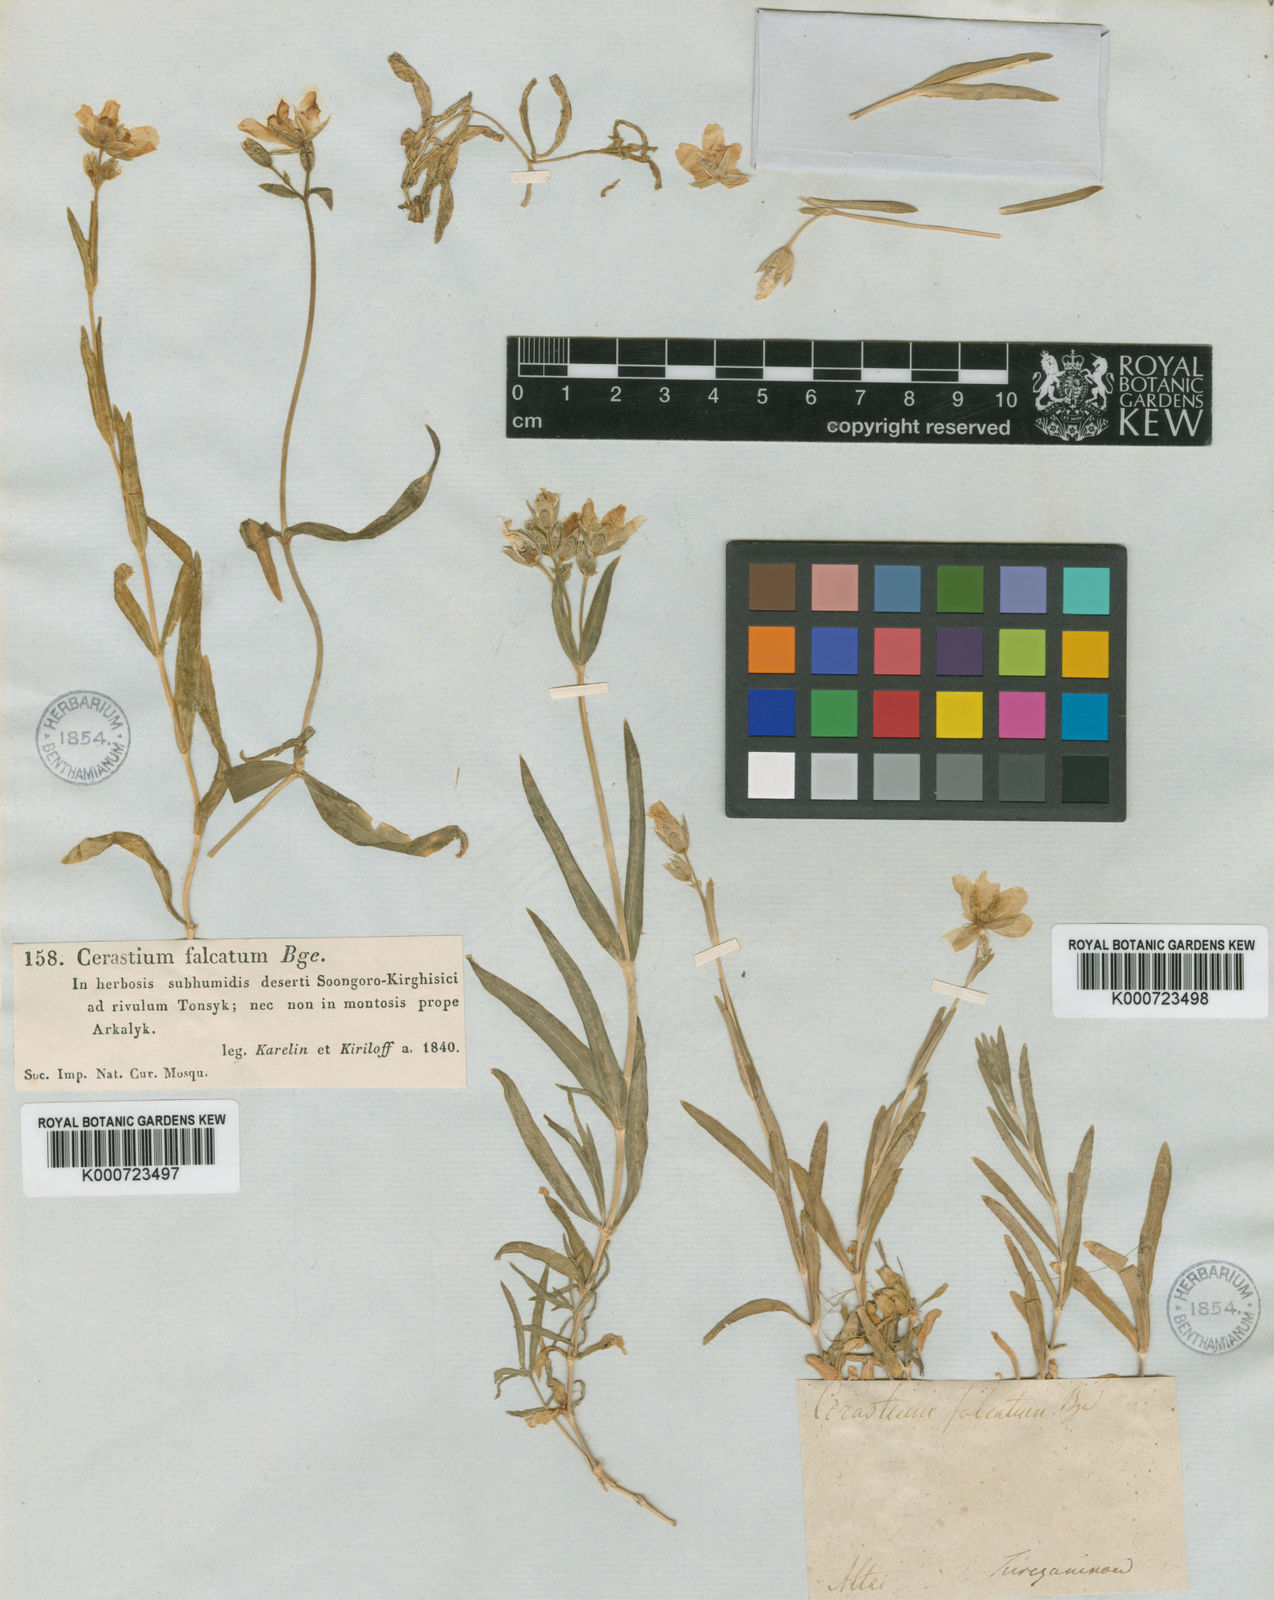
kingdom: Plantae
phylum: Tracheophyta
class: Magnoliopsida
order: Caryophyllales
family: Caryophyllaceae
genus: Cerastium
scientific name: Cerastium
